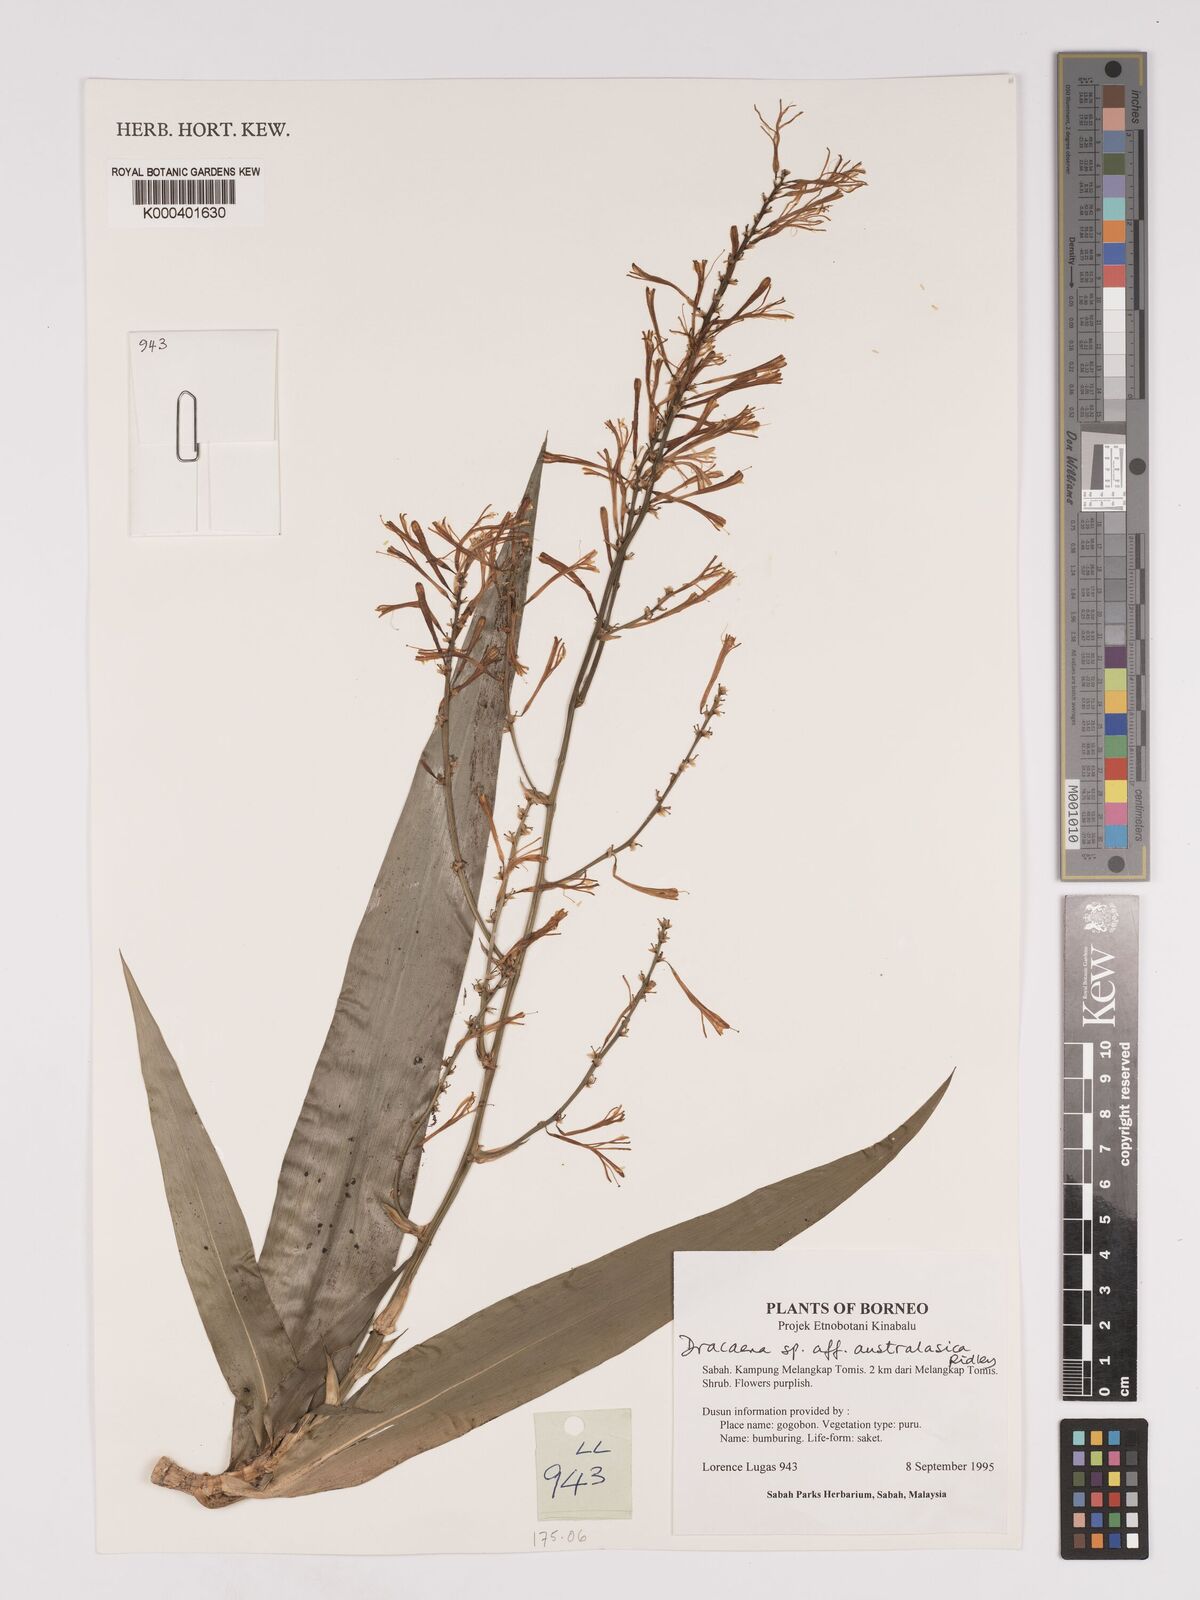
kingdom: Plantae
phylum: Tracheophyta
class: Liliopsida
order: Asparagales
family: Asparagaceae
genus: Dracaena
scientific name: Dracaena angustifolia
